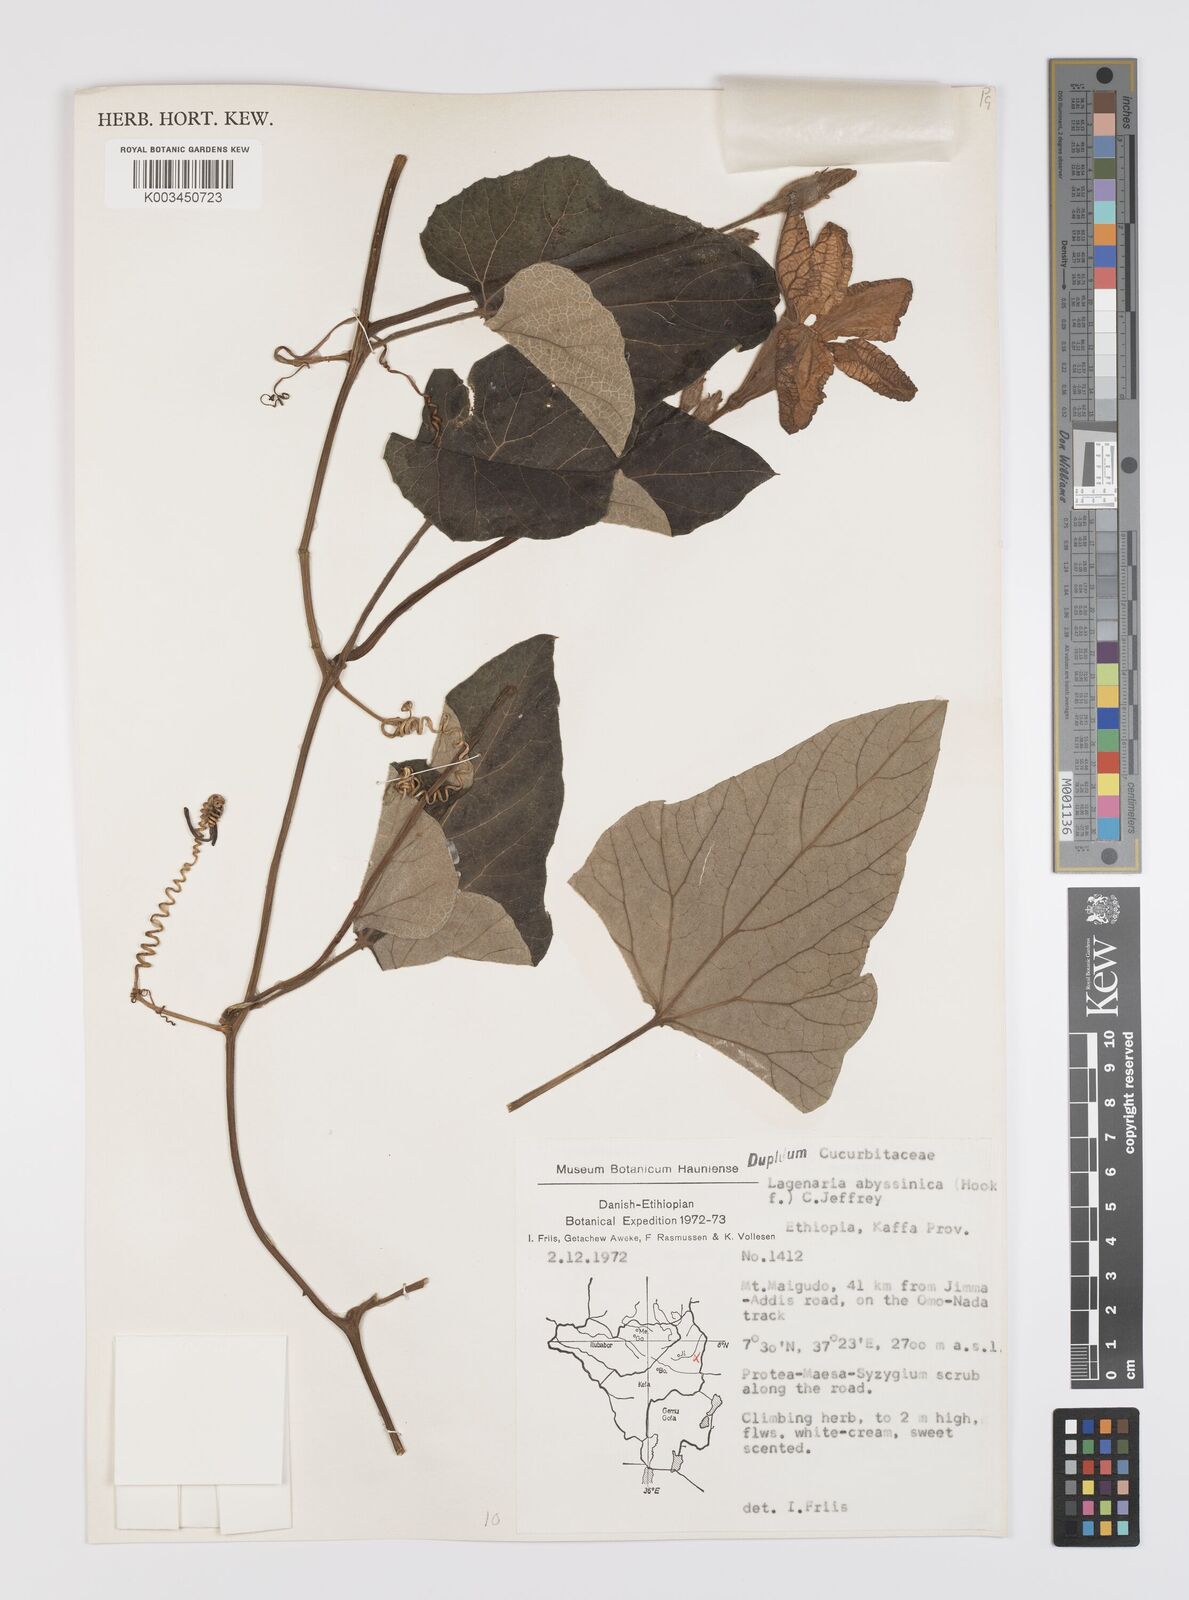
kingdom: Plantae
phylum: Tracheophyta
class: Magnoliopsida
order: Cucurbitales
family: Cucurbitaceae
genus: Lagenaria
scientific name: Lagenaria abyssinica
